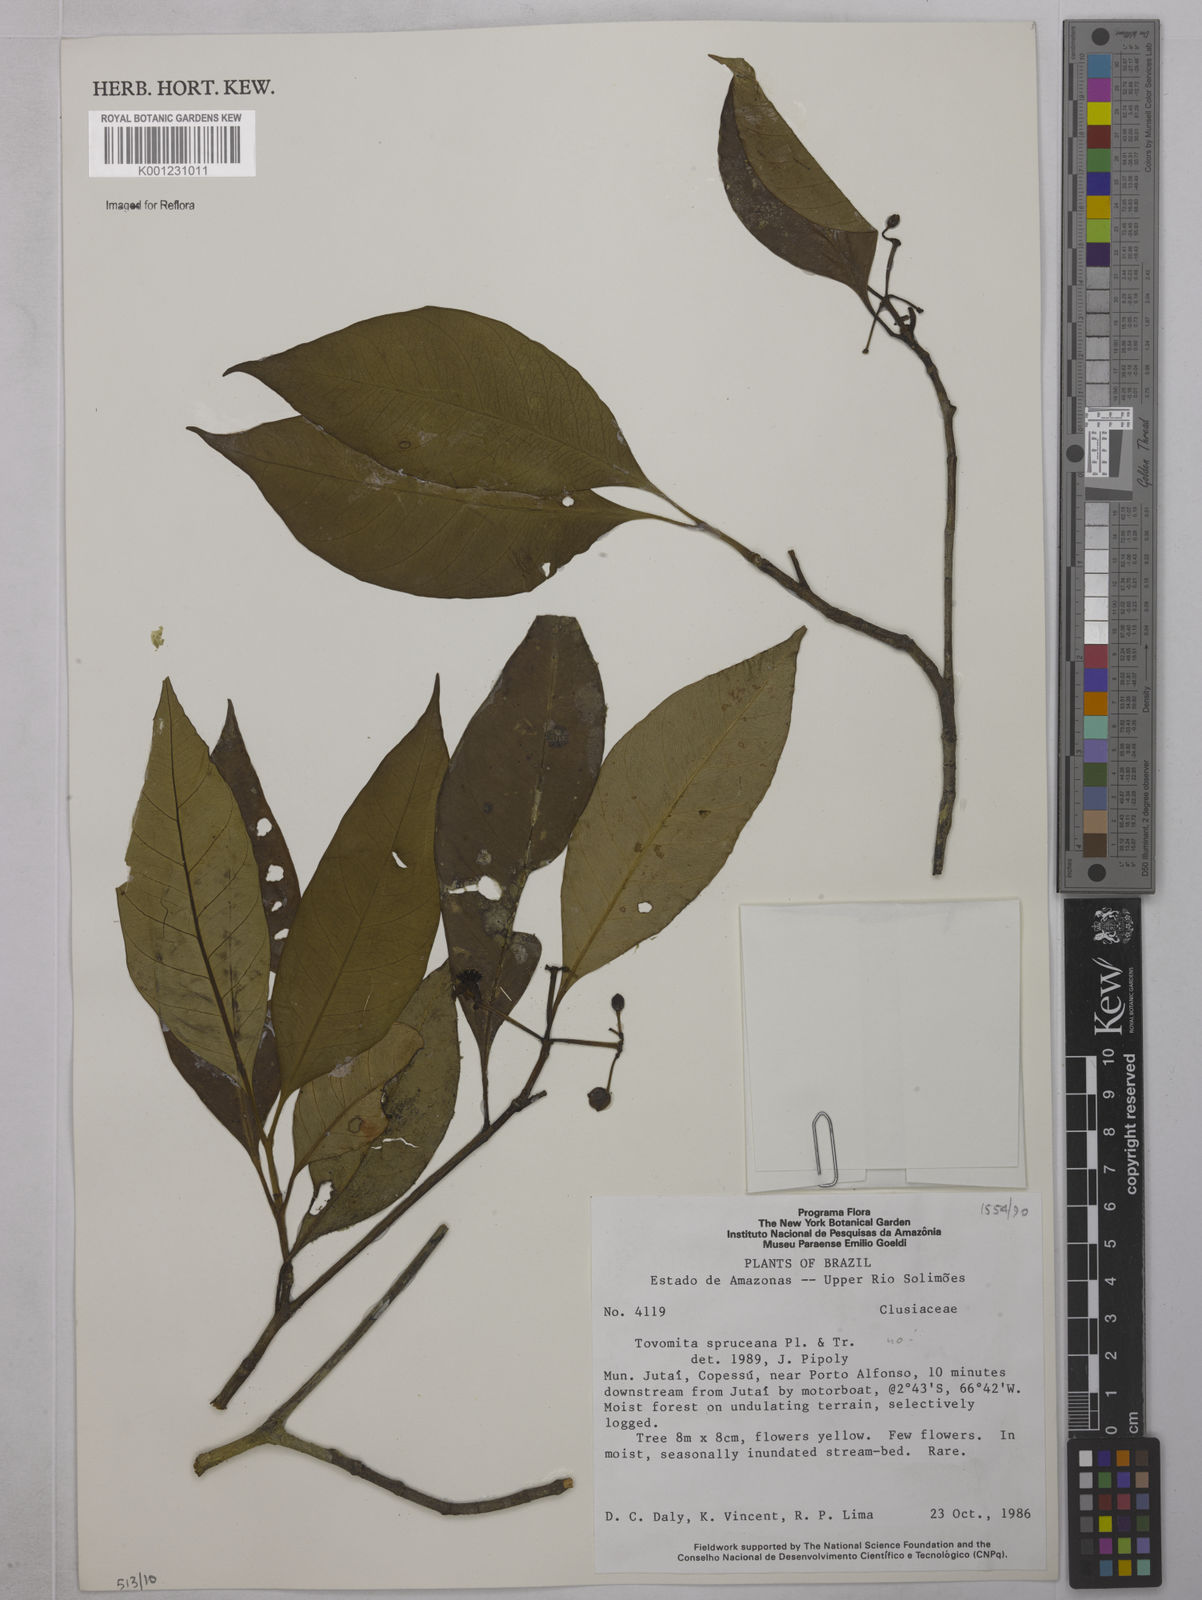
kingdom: Plantae
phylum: Tracheophyta
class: Magnoliopsida
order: Malpighiales
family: Clusiaceae
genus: Tovomita
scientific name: Tovomita gracilipes
